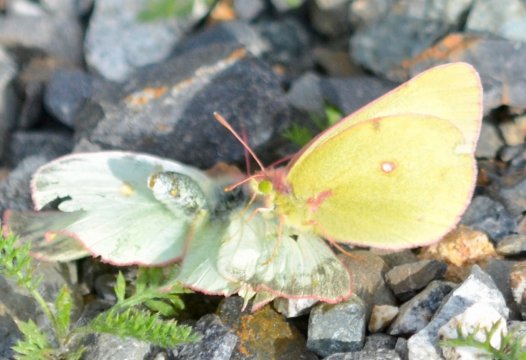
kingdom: Animalia
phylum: Arthropoda
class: Insecta
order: Lepidoptera
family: Pieridae
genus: Colias
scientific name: Colias gigantea
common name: Giant Sulphur
